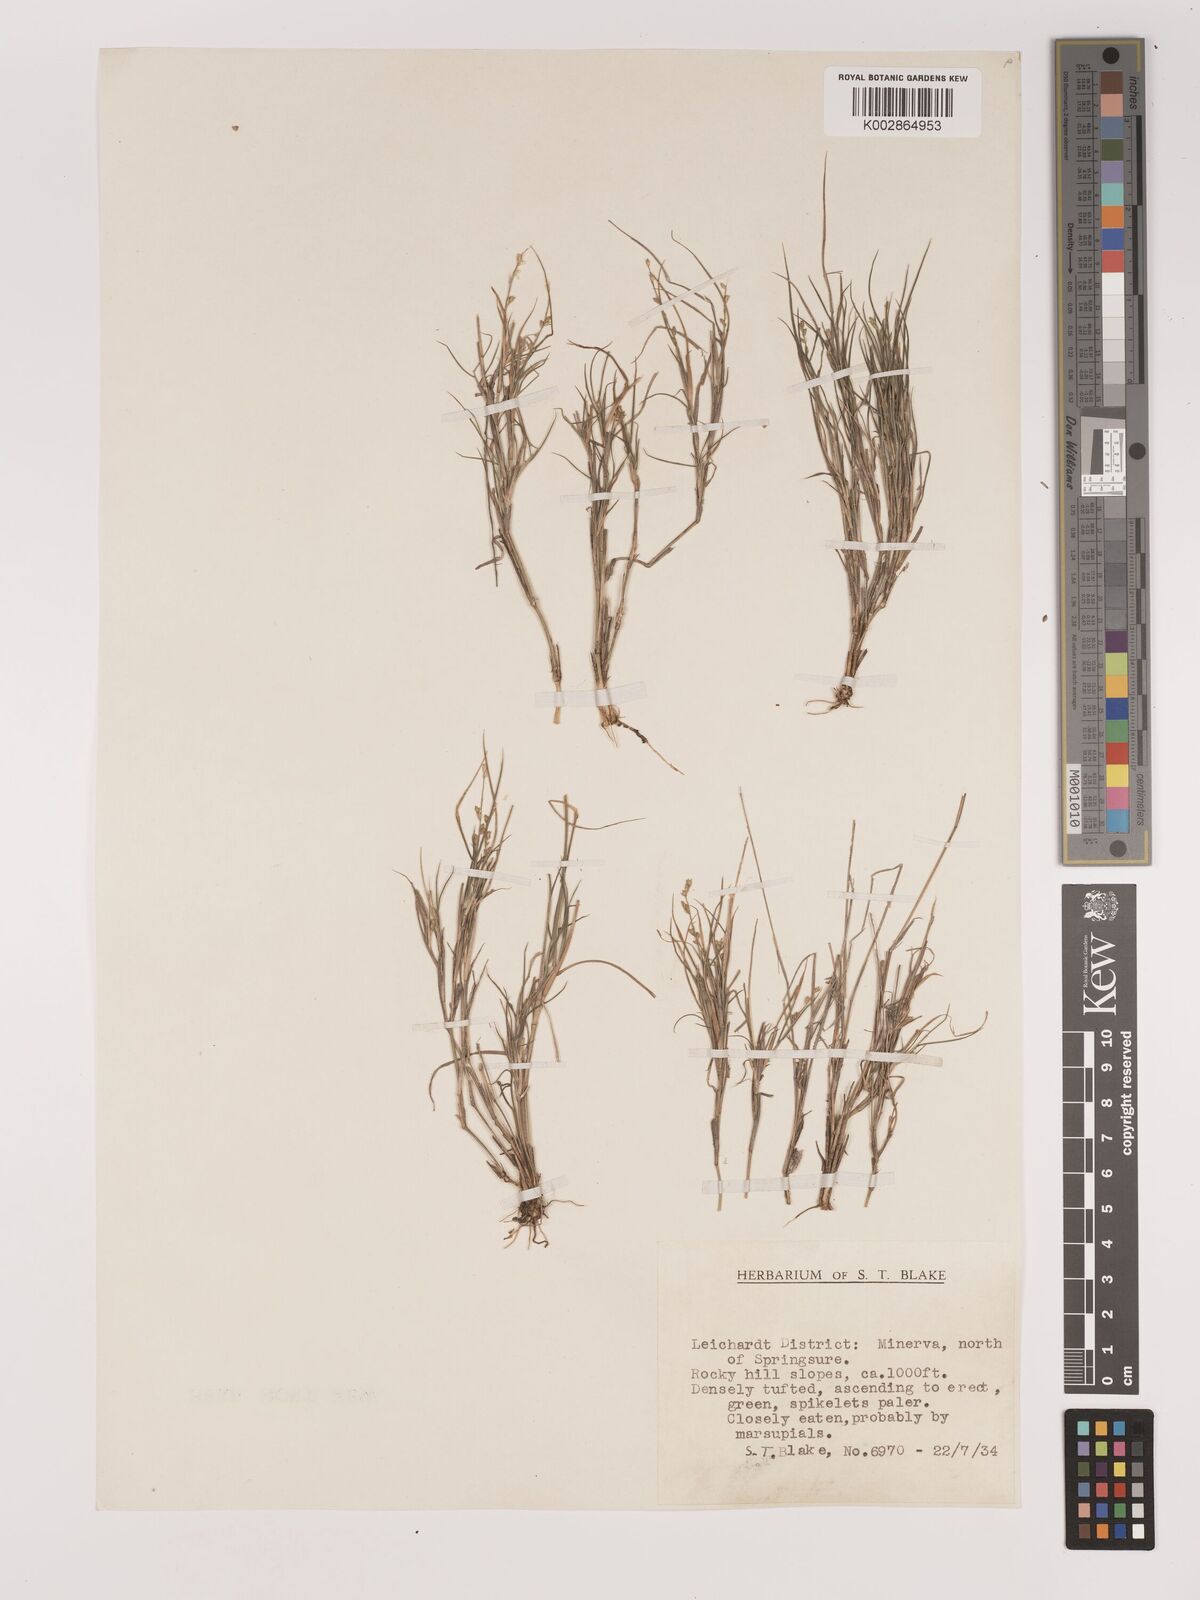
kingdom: Plantae
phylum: Tracheophyta
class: Liliopsida
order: Poales
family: Poaceae
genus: Setaria
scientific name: Setaria
